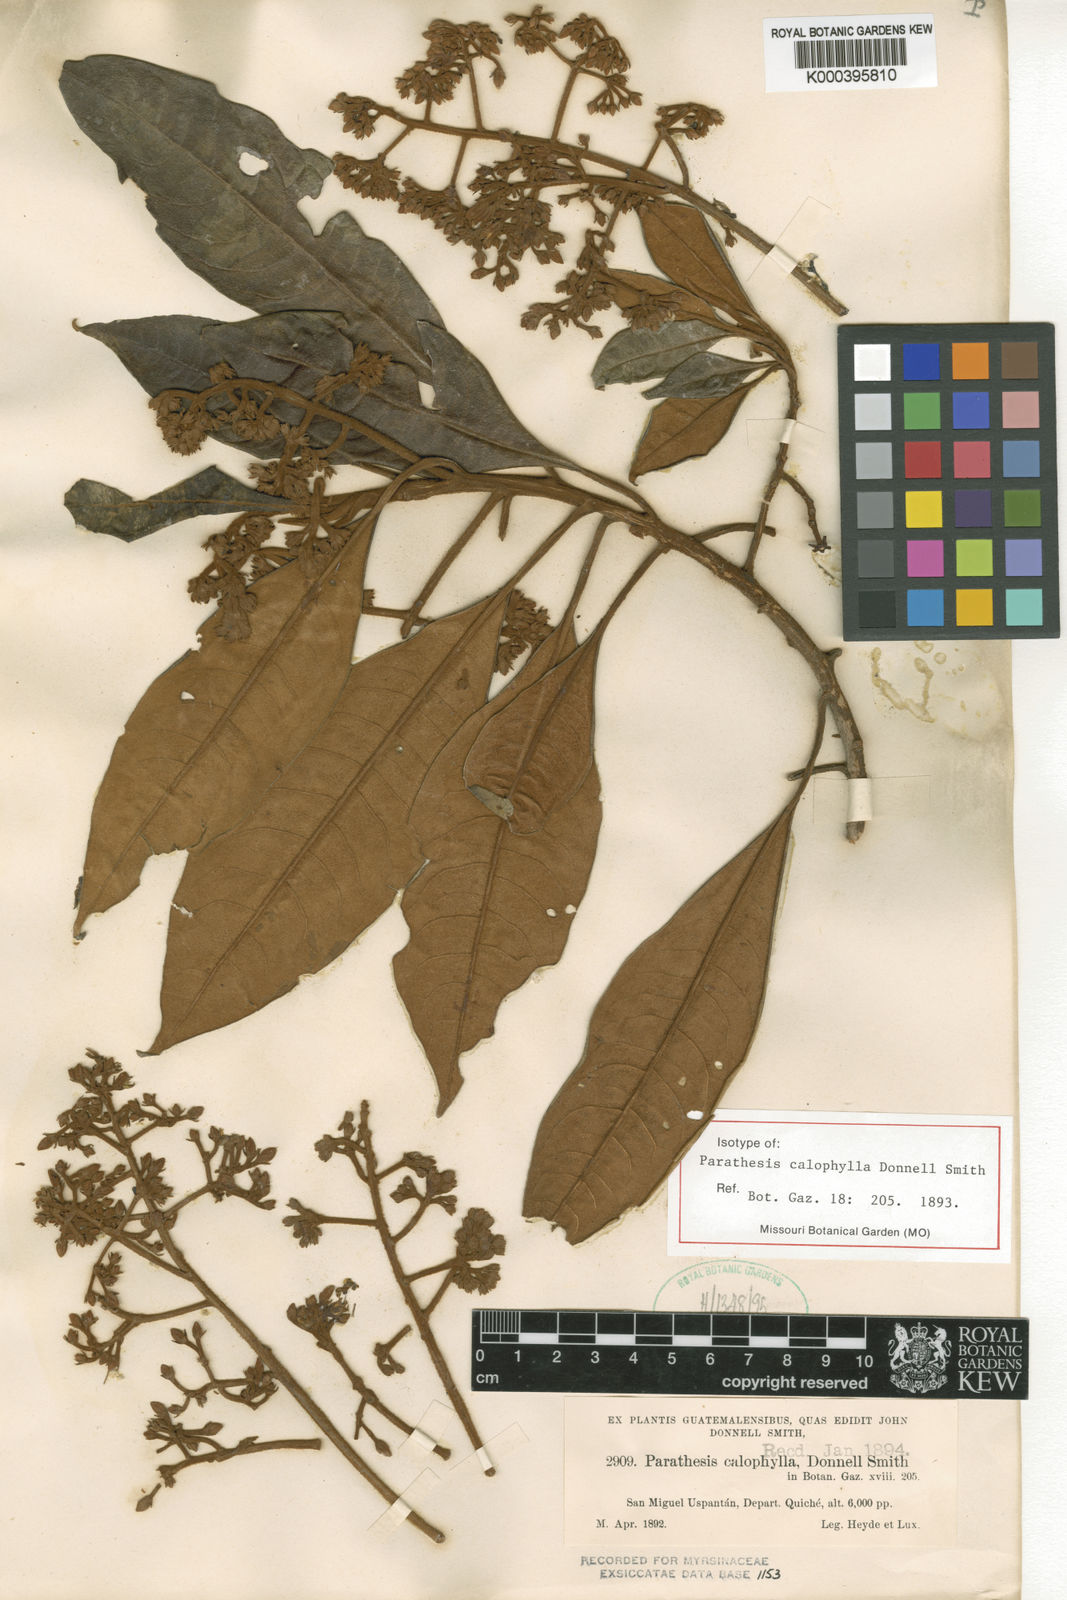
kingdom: Plantae
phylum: Tracheophyta
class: Magnoliopsida
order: Ericales
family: Primulaceae
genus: Parathesis
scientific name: Parathesis calophylla
